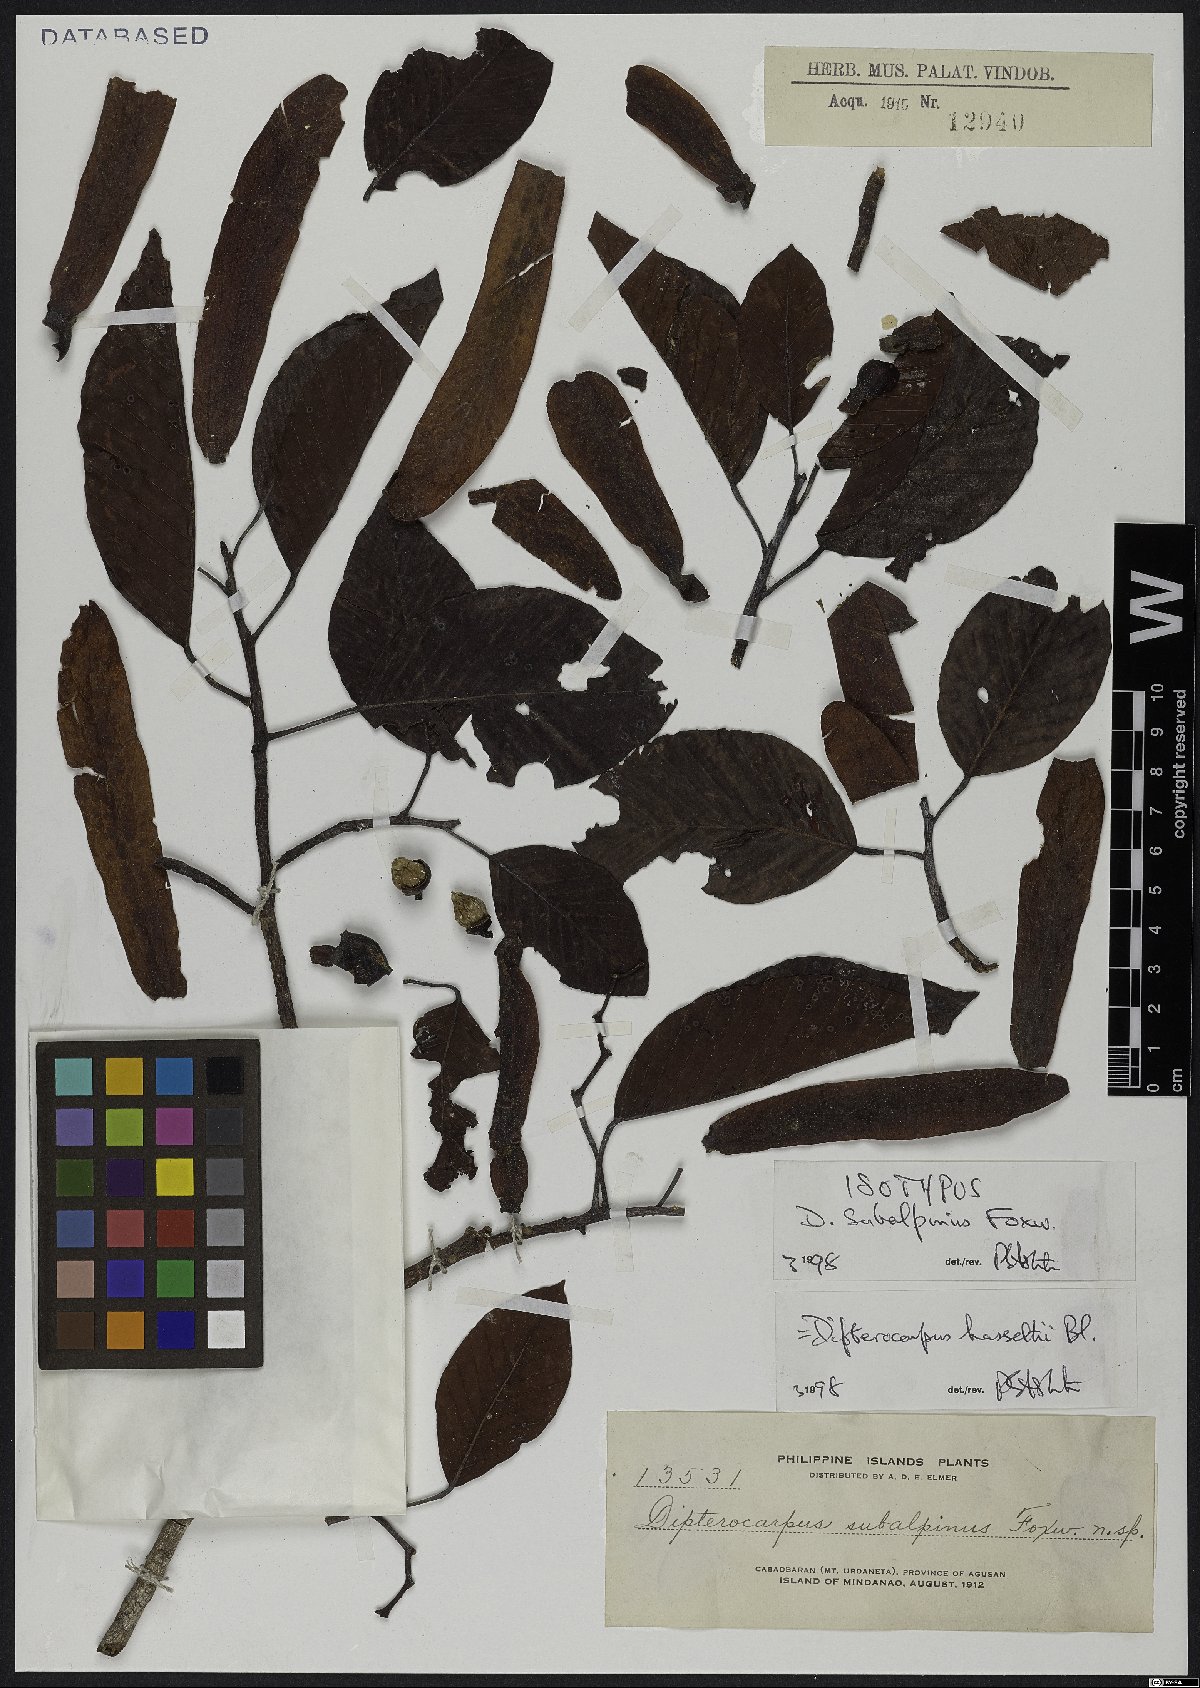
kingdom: Plantae
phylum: Tracheophyta
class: Magnoliopsida
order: Malvales
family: Dipterocarpaceae
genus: Dipterocarpus
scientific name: Dipterocarpus hasseltii
